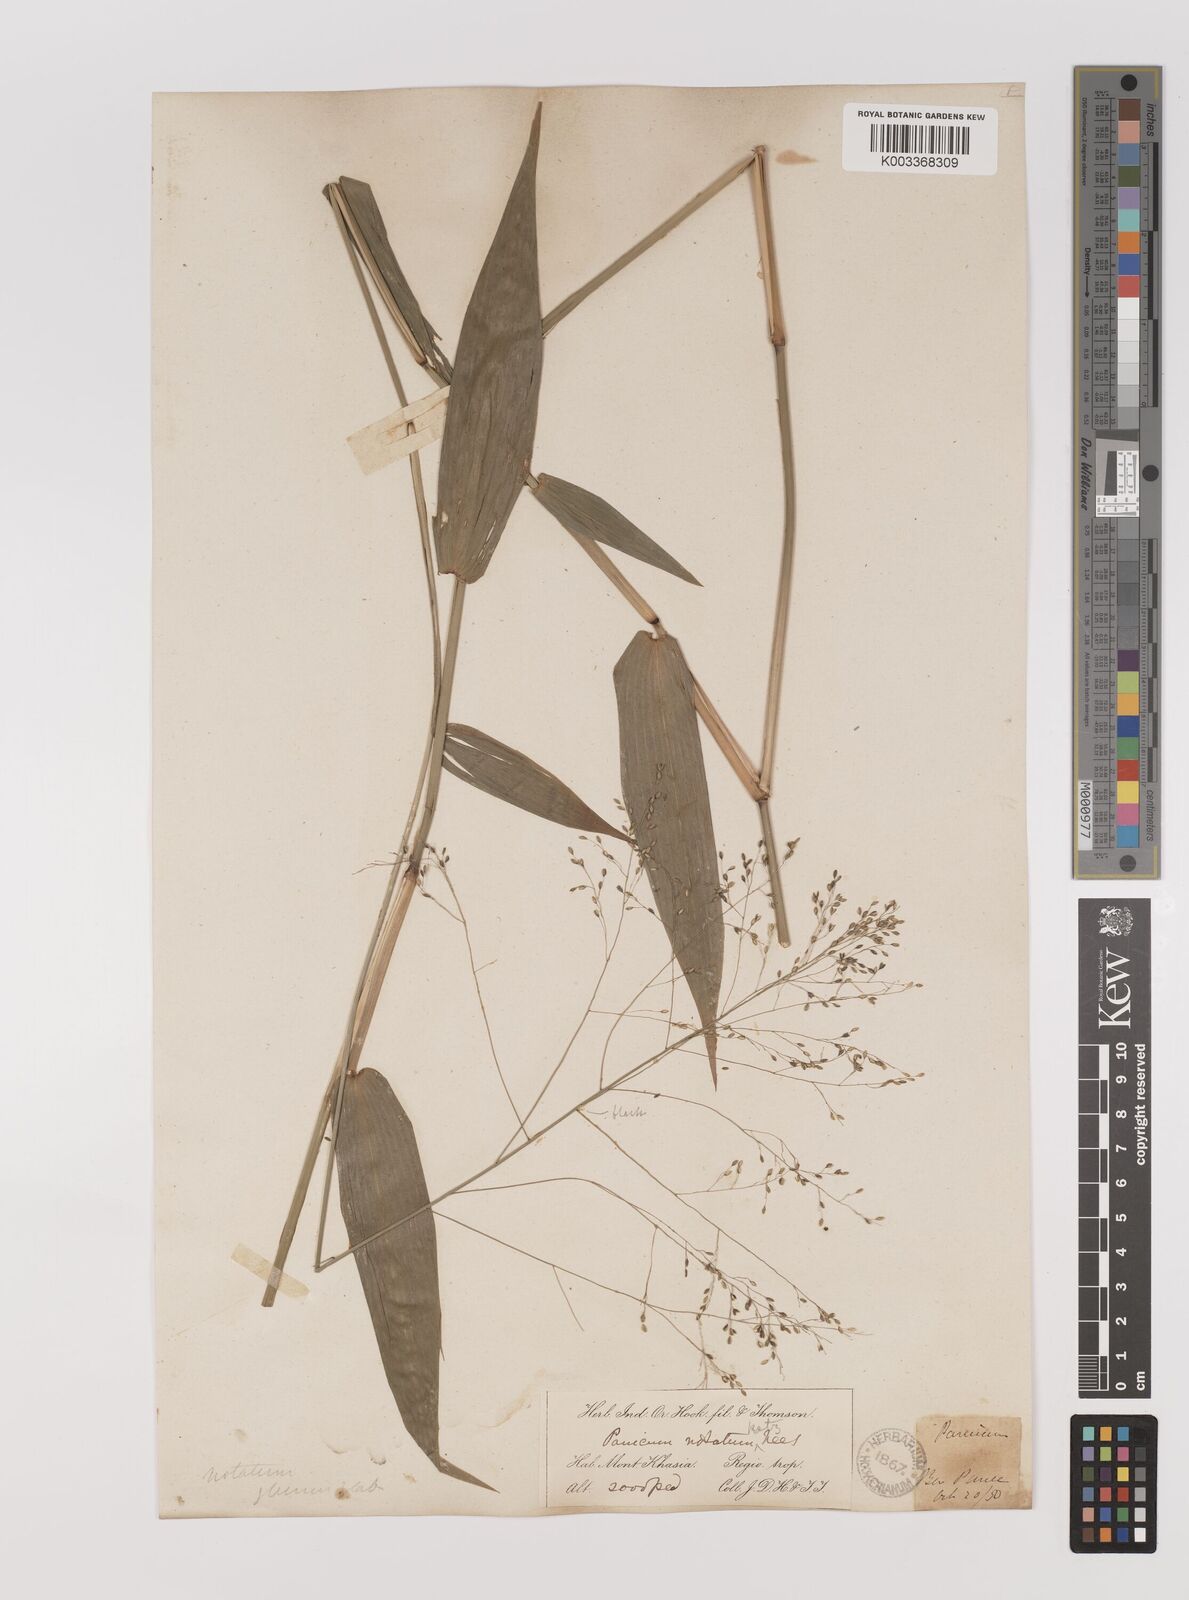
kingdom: Plantae
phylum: Tracheophyta
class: Liliopsida
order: Poales
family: Poaceae
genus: Panicum
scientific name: Panicum notatum
